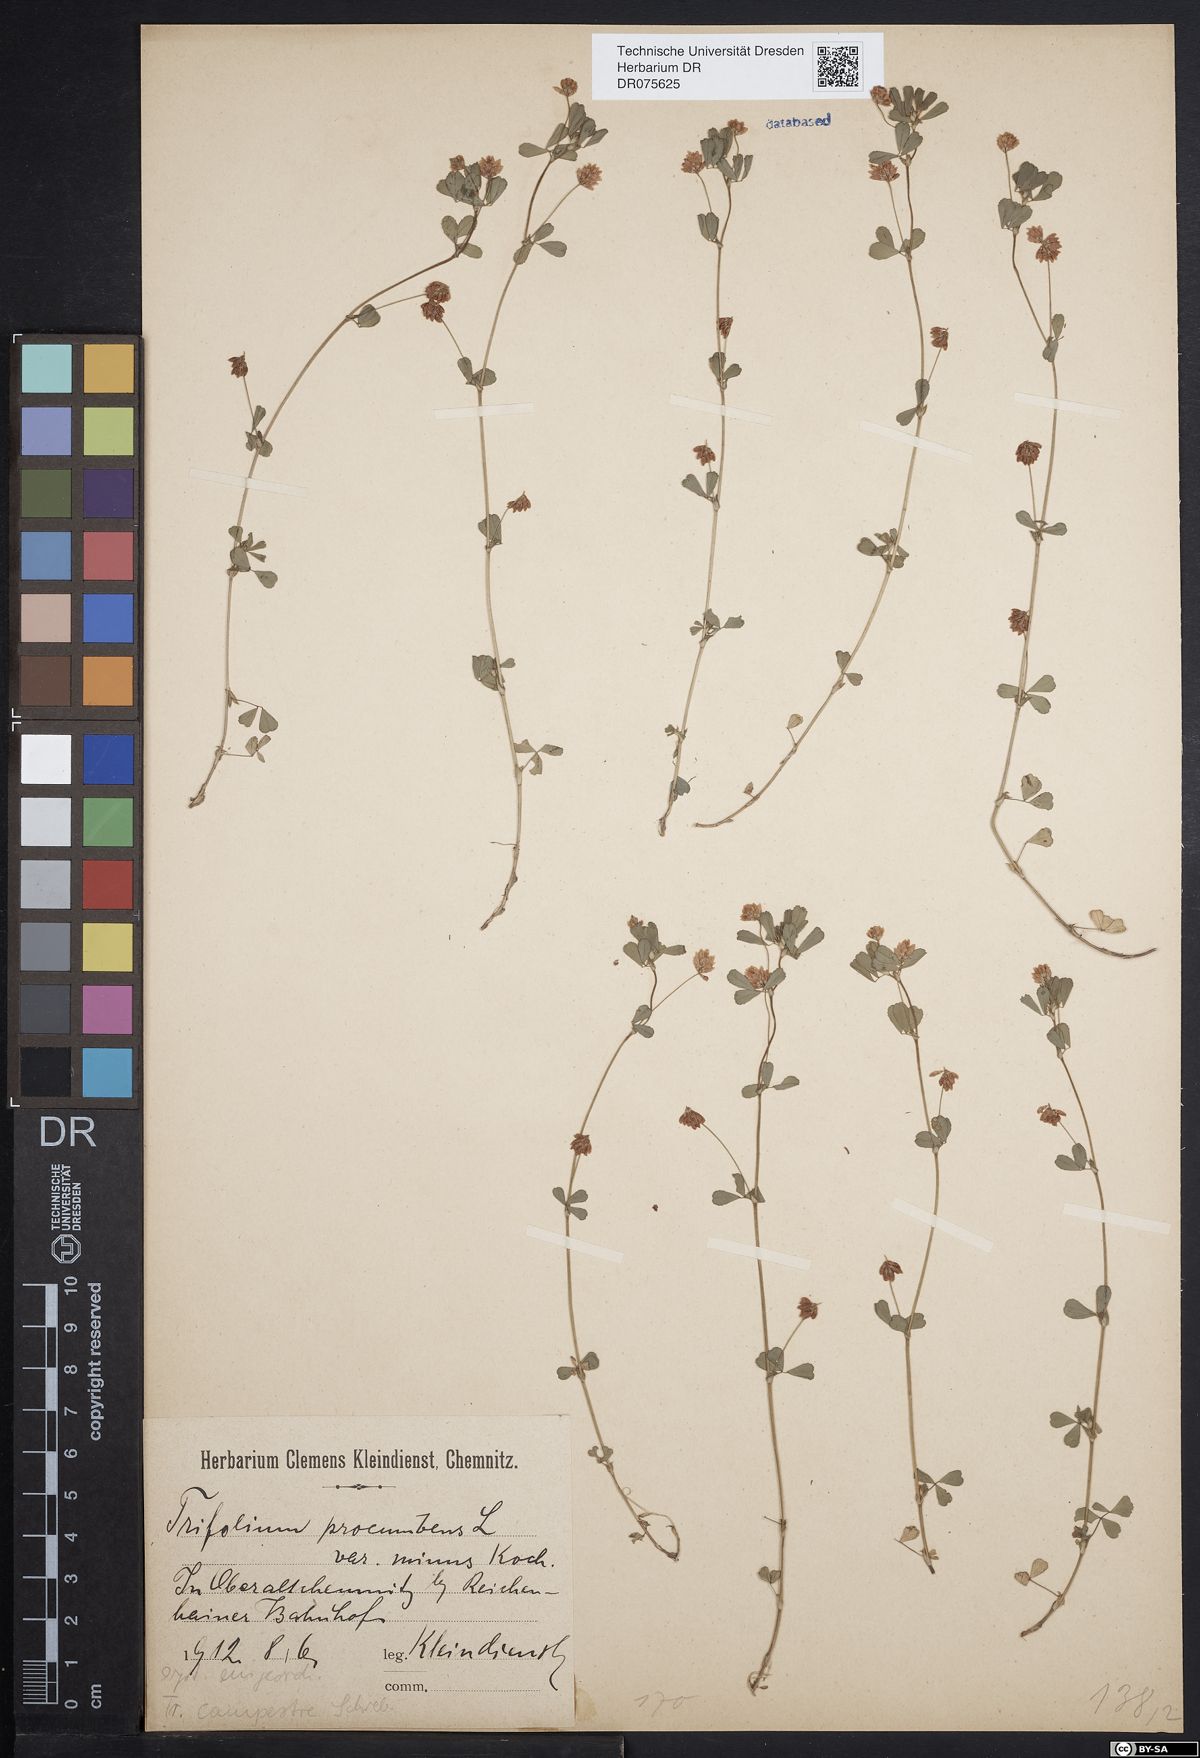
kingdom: Plantae
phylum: Tracheophyta
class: Magnoliopsida
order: Fabales
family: Fabaceae
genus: Trifolium
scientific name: Trifolium dubium
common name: Suckling clover
